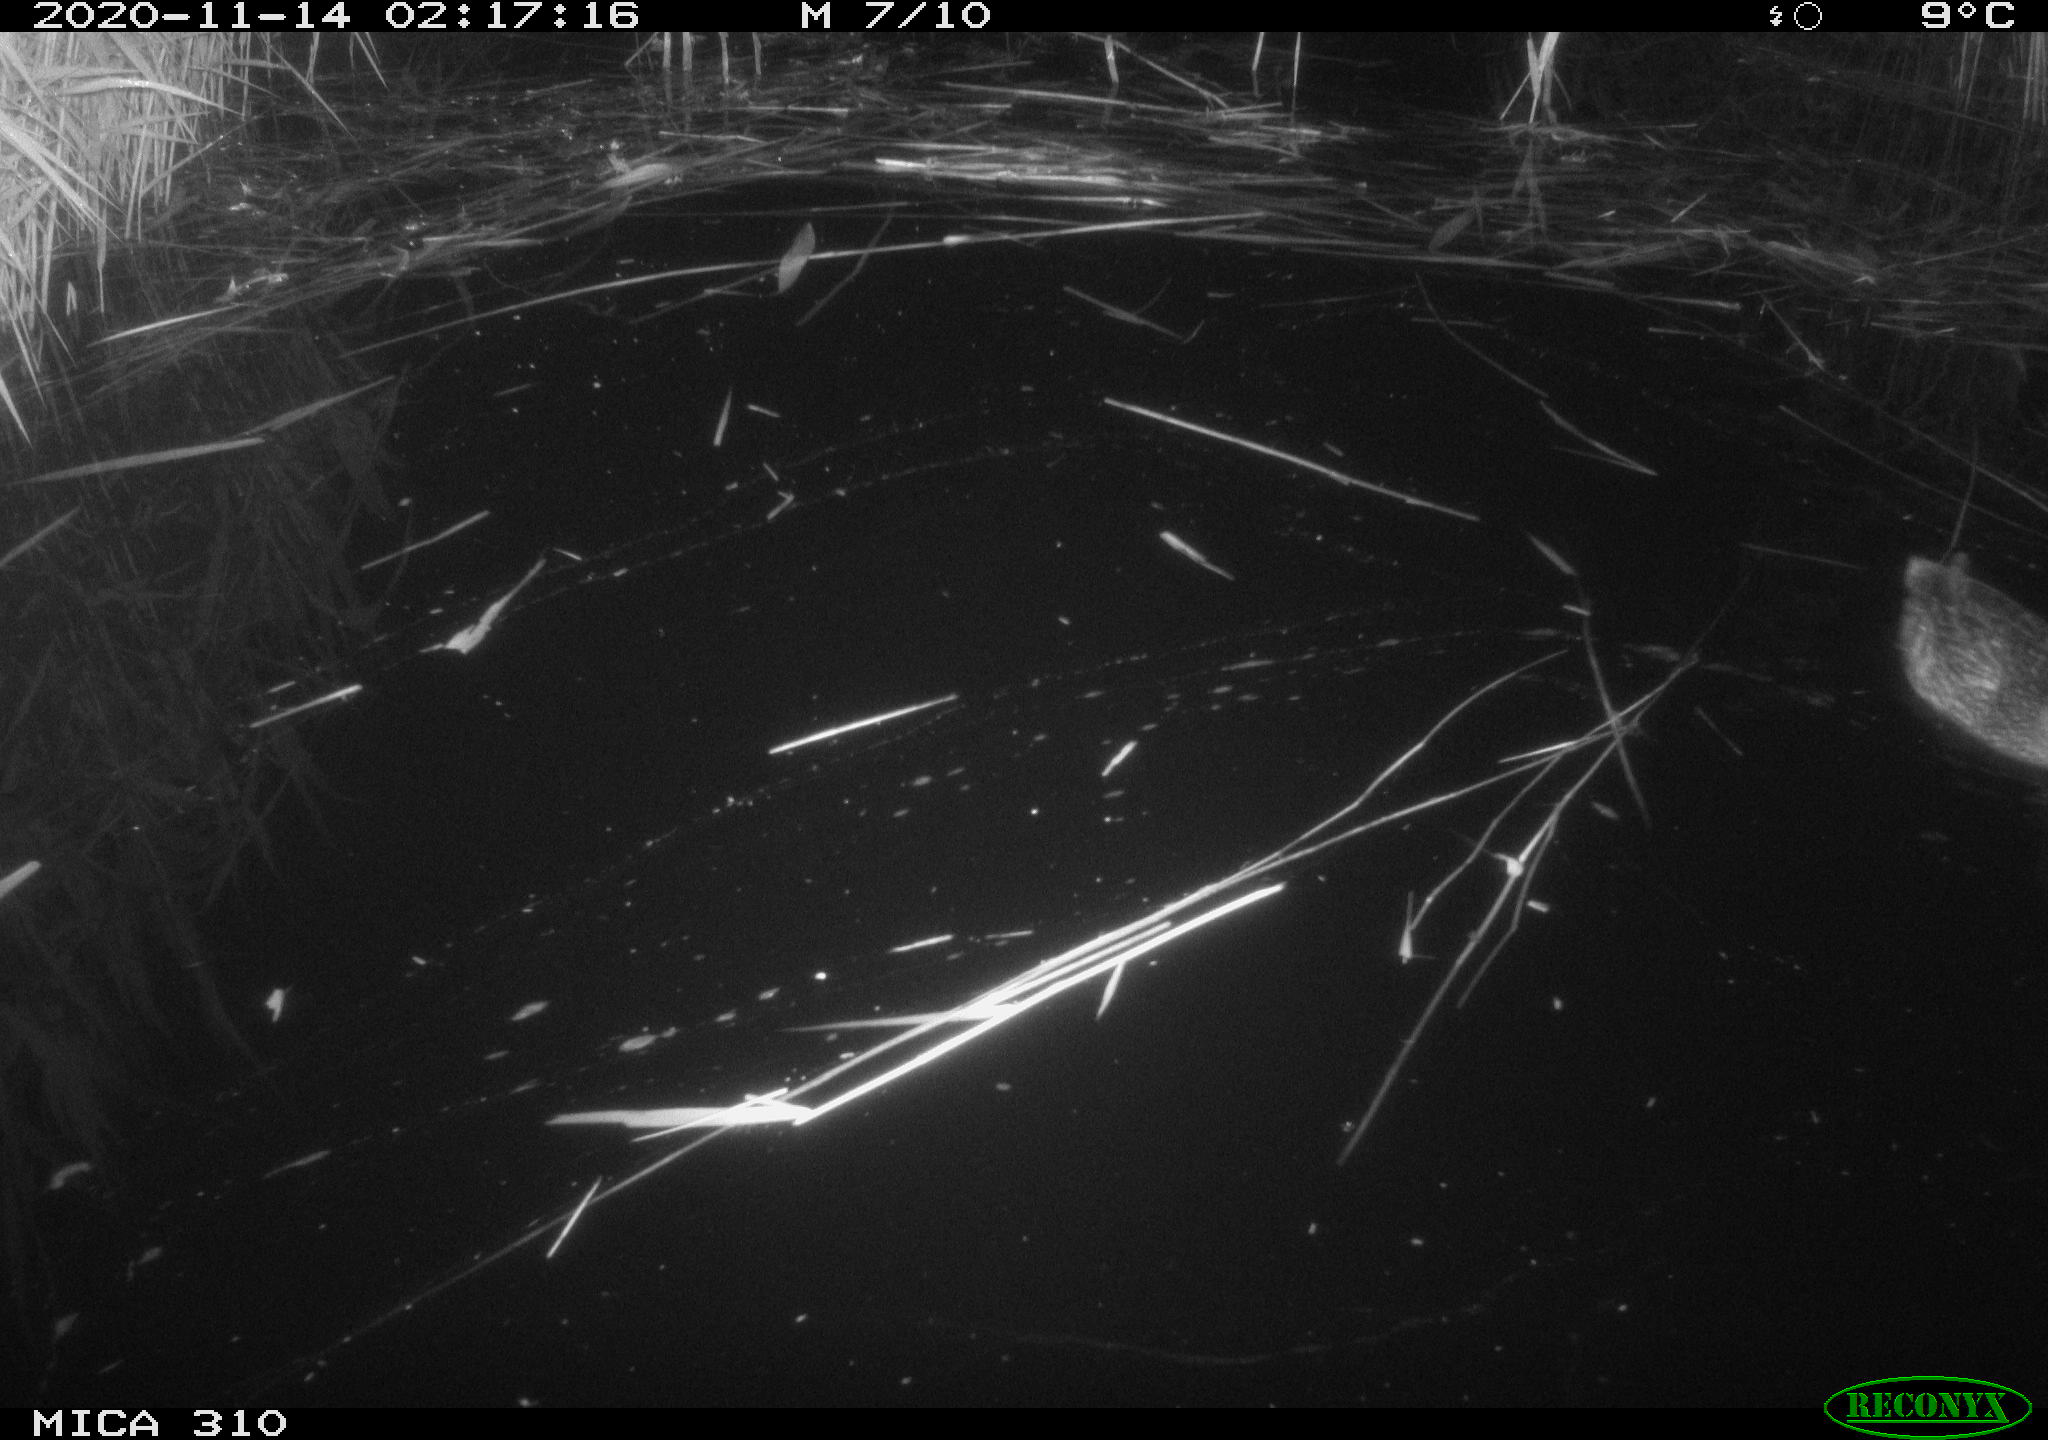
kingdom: Animalia
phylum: Chordata
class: Aves
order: Anseriformes
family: Anatidae
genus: Anas
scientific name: Anas platyrhynchos
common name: Mallard
